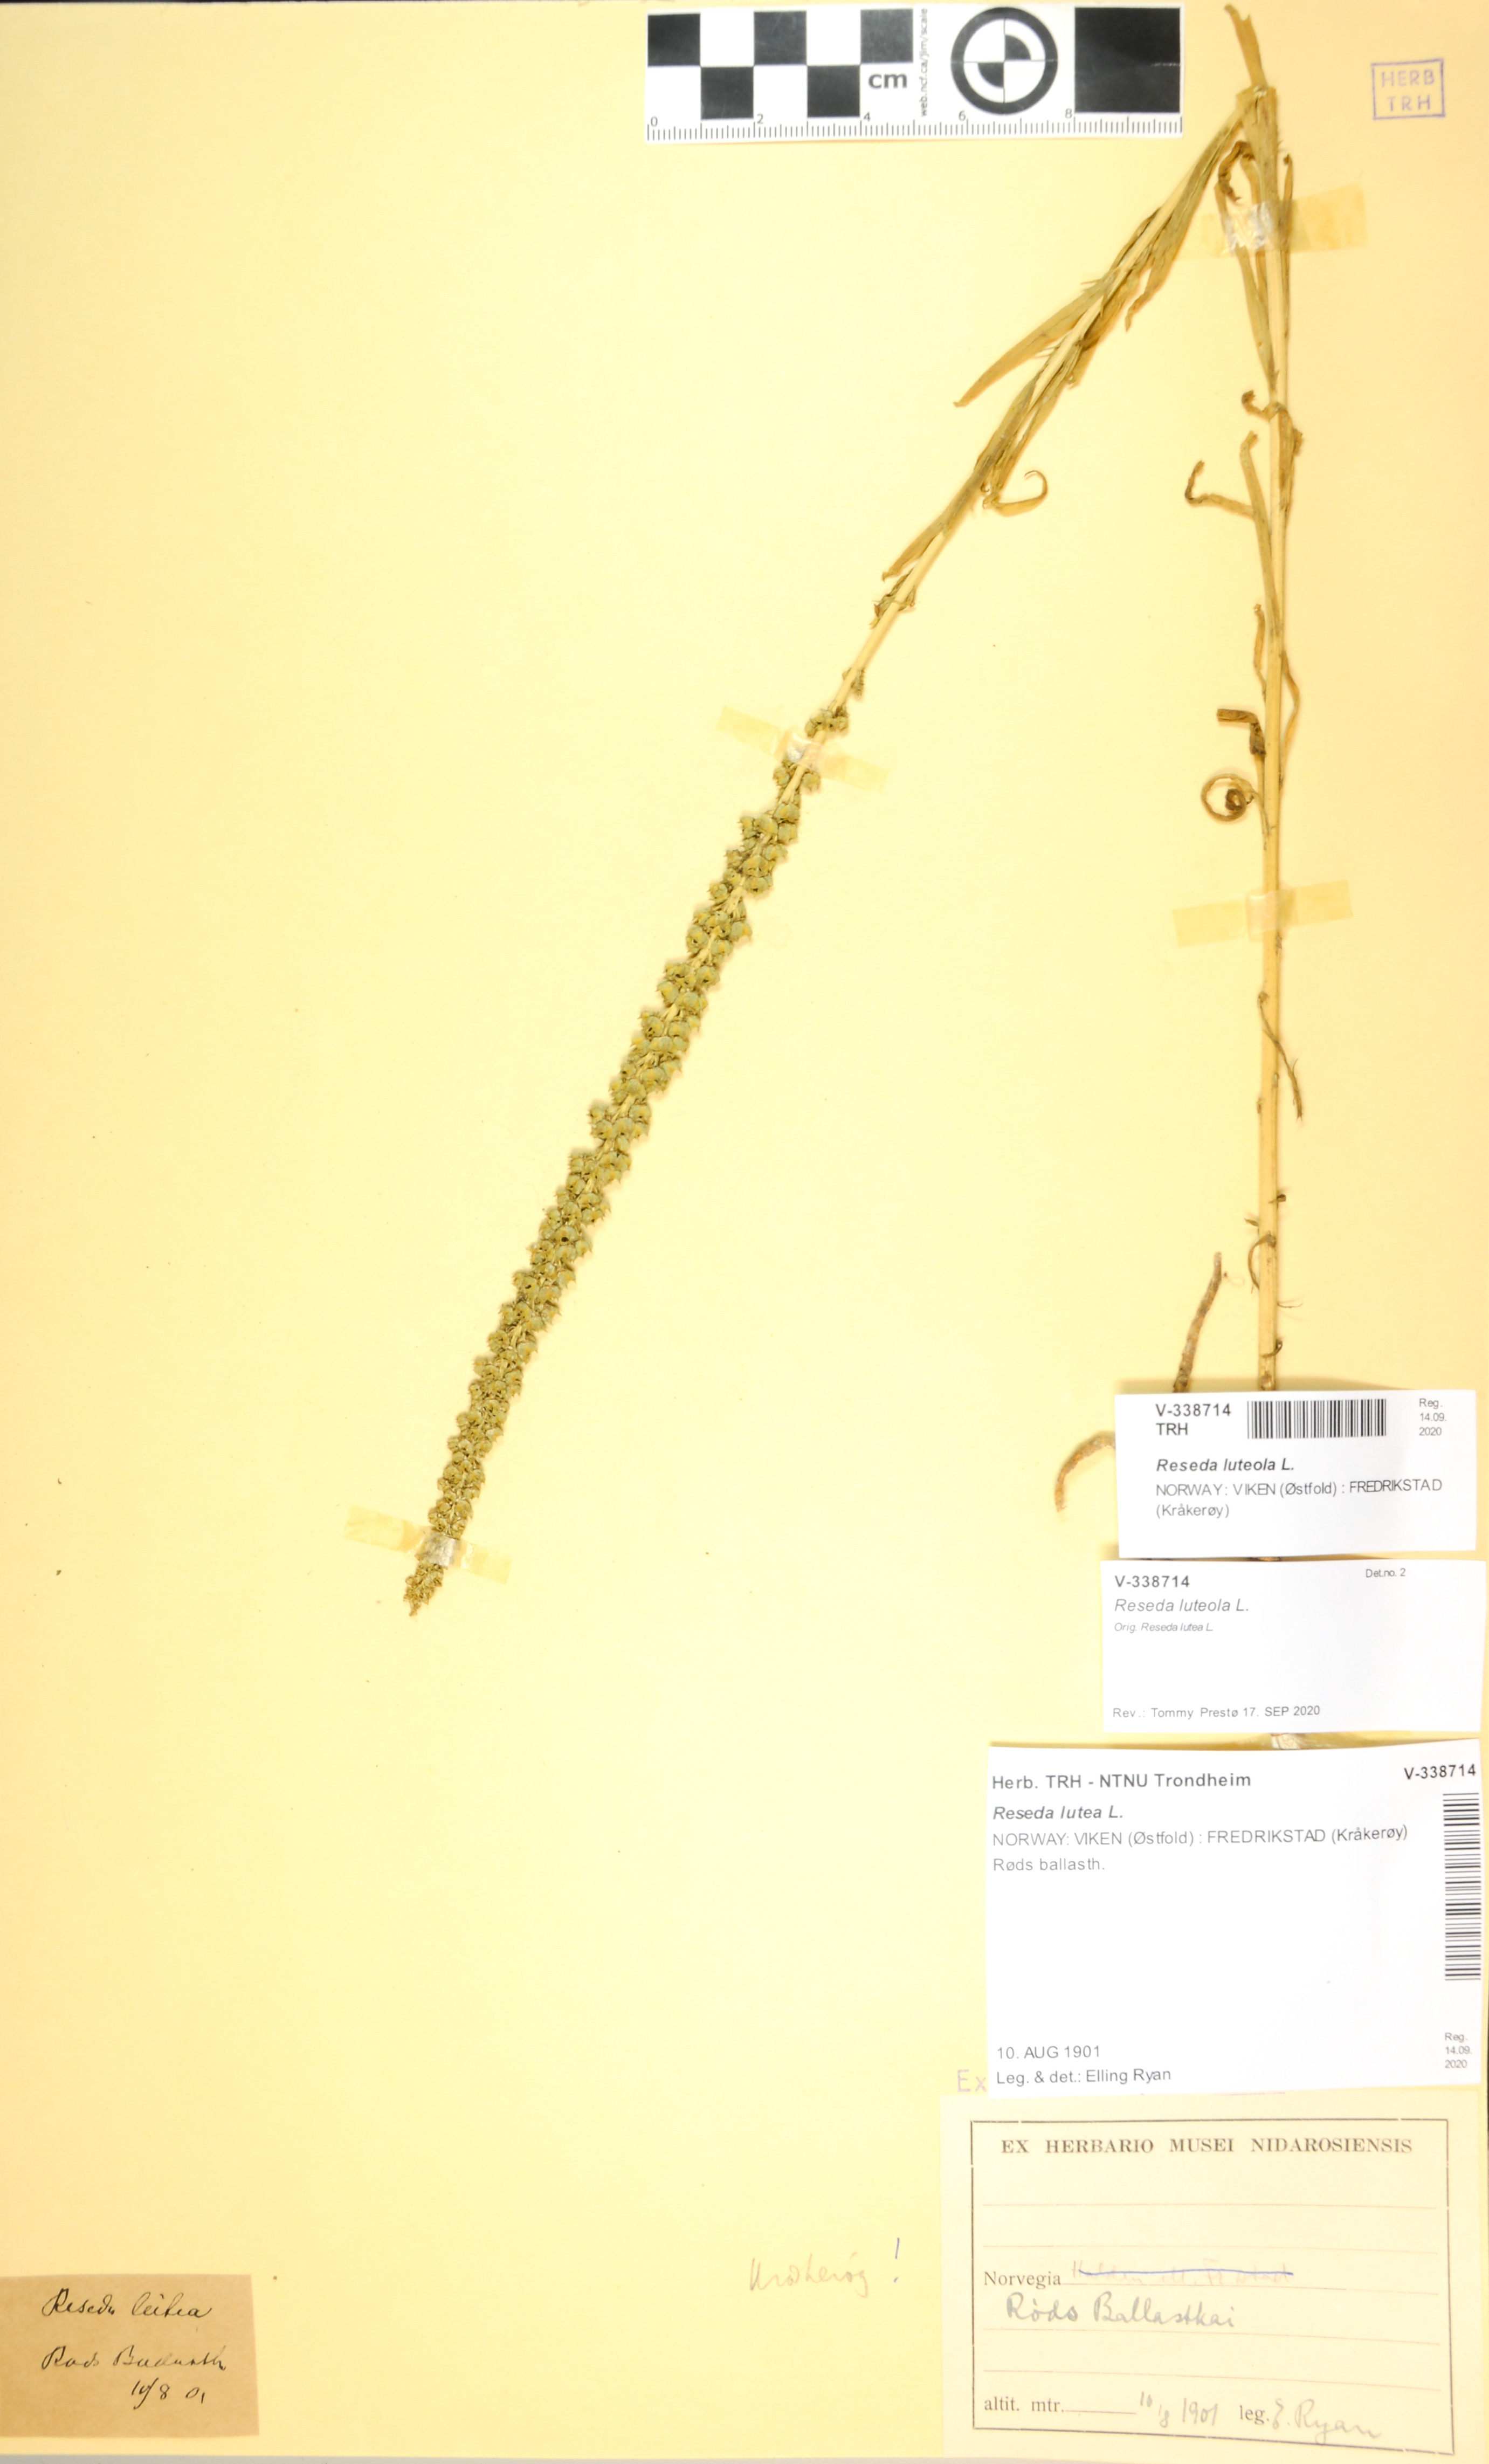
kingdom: Plantae
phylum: Tracheophyta
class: Magnoliopsida
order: Brassicales
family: Resedaceae
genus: Reseda
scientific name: Reseda luteola
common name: Weld
